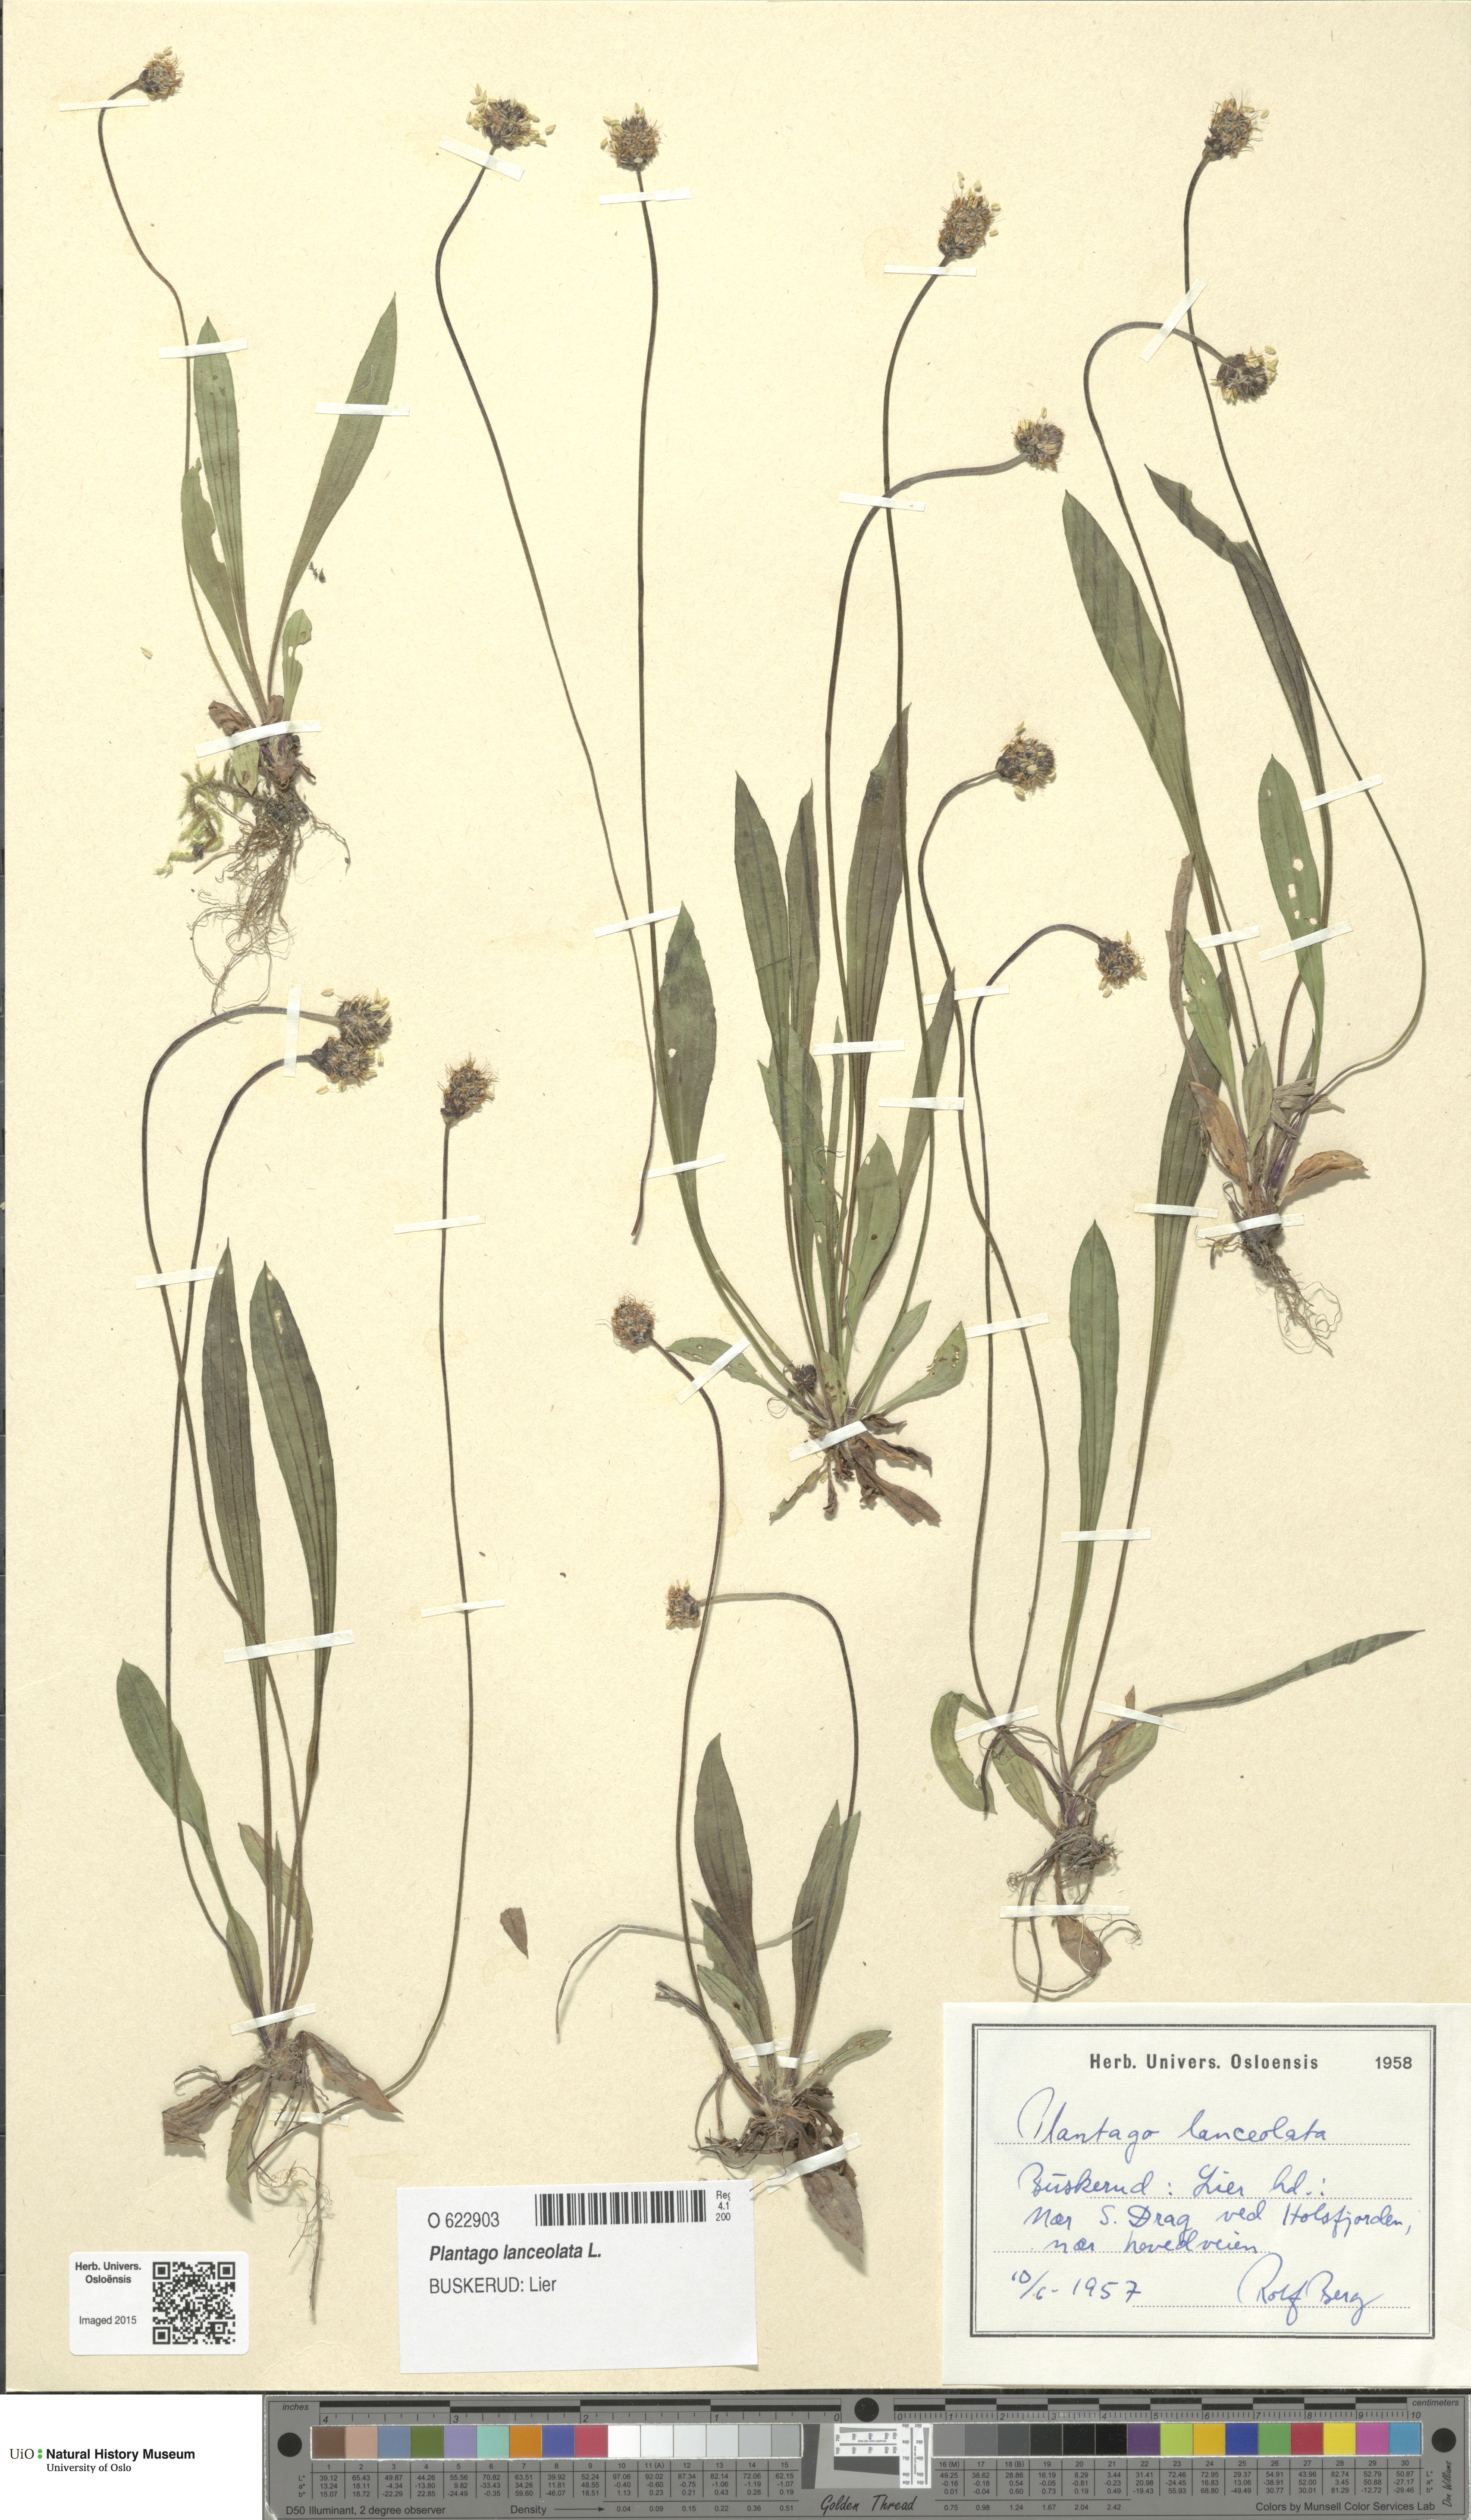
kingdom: Plantae
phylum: Tracheophyta
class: Magnoliopsida
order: Lamiales
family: Plantaginaceae
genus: Plantago
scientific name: Plantago lanceolata
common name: Ribwort plantain
